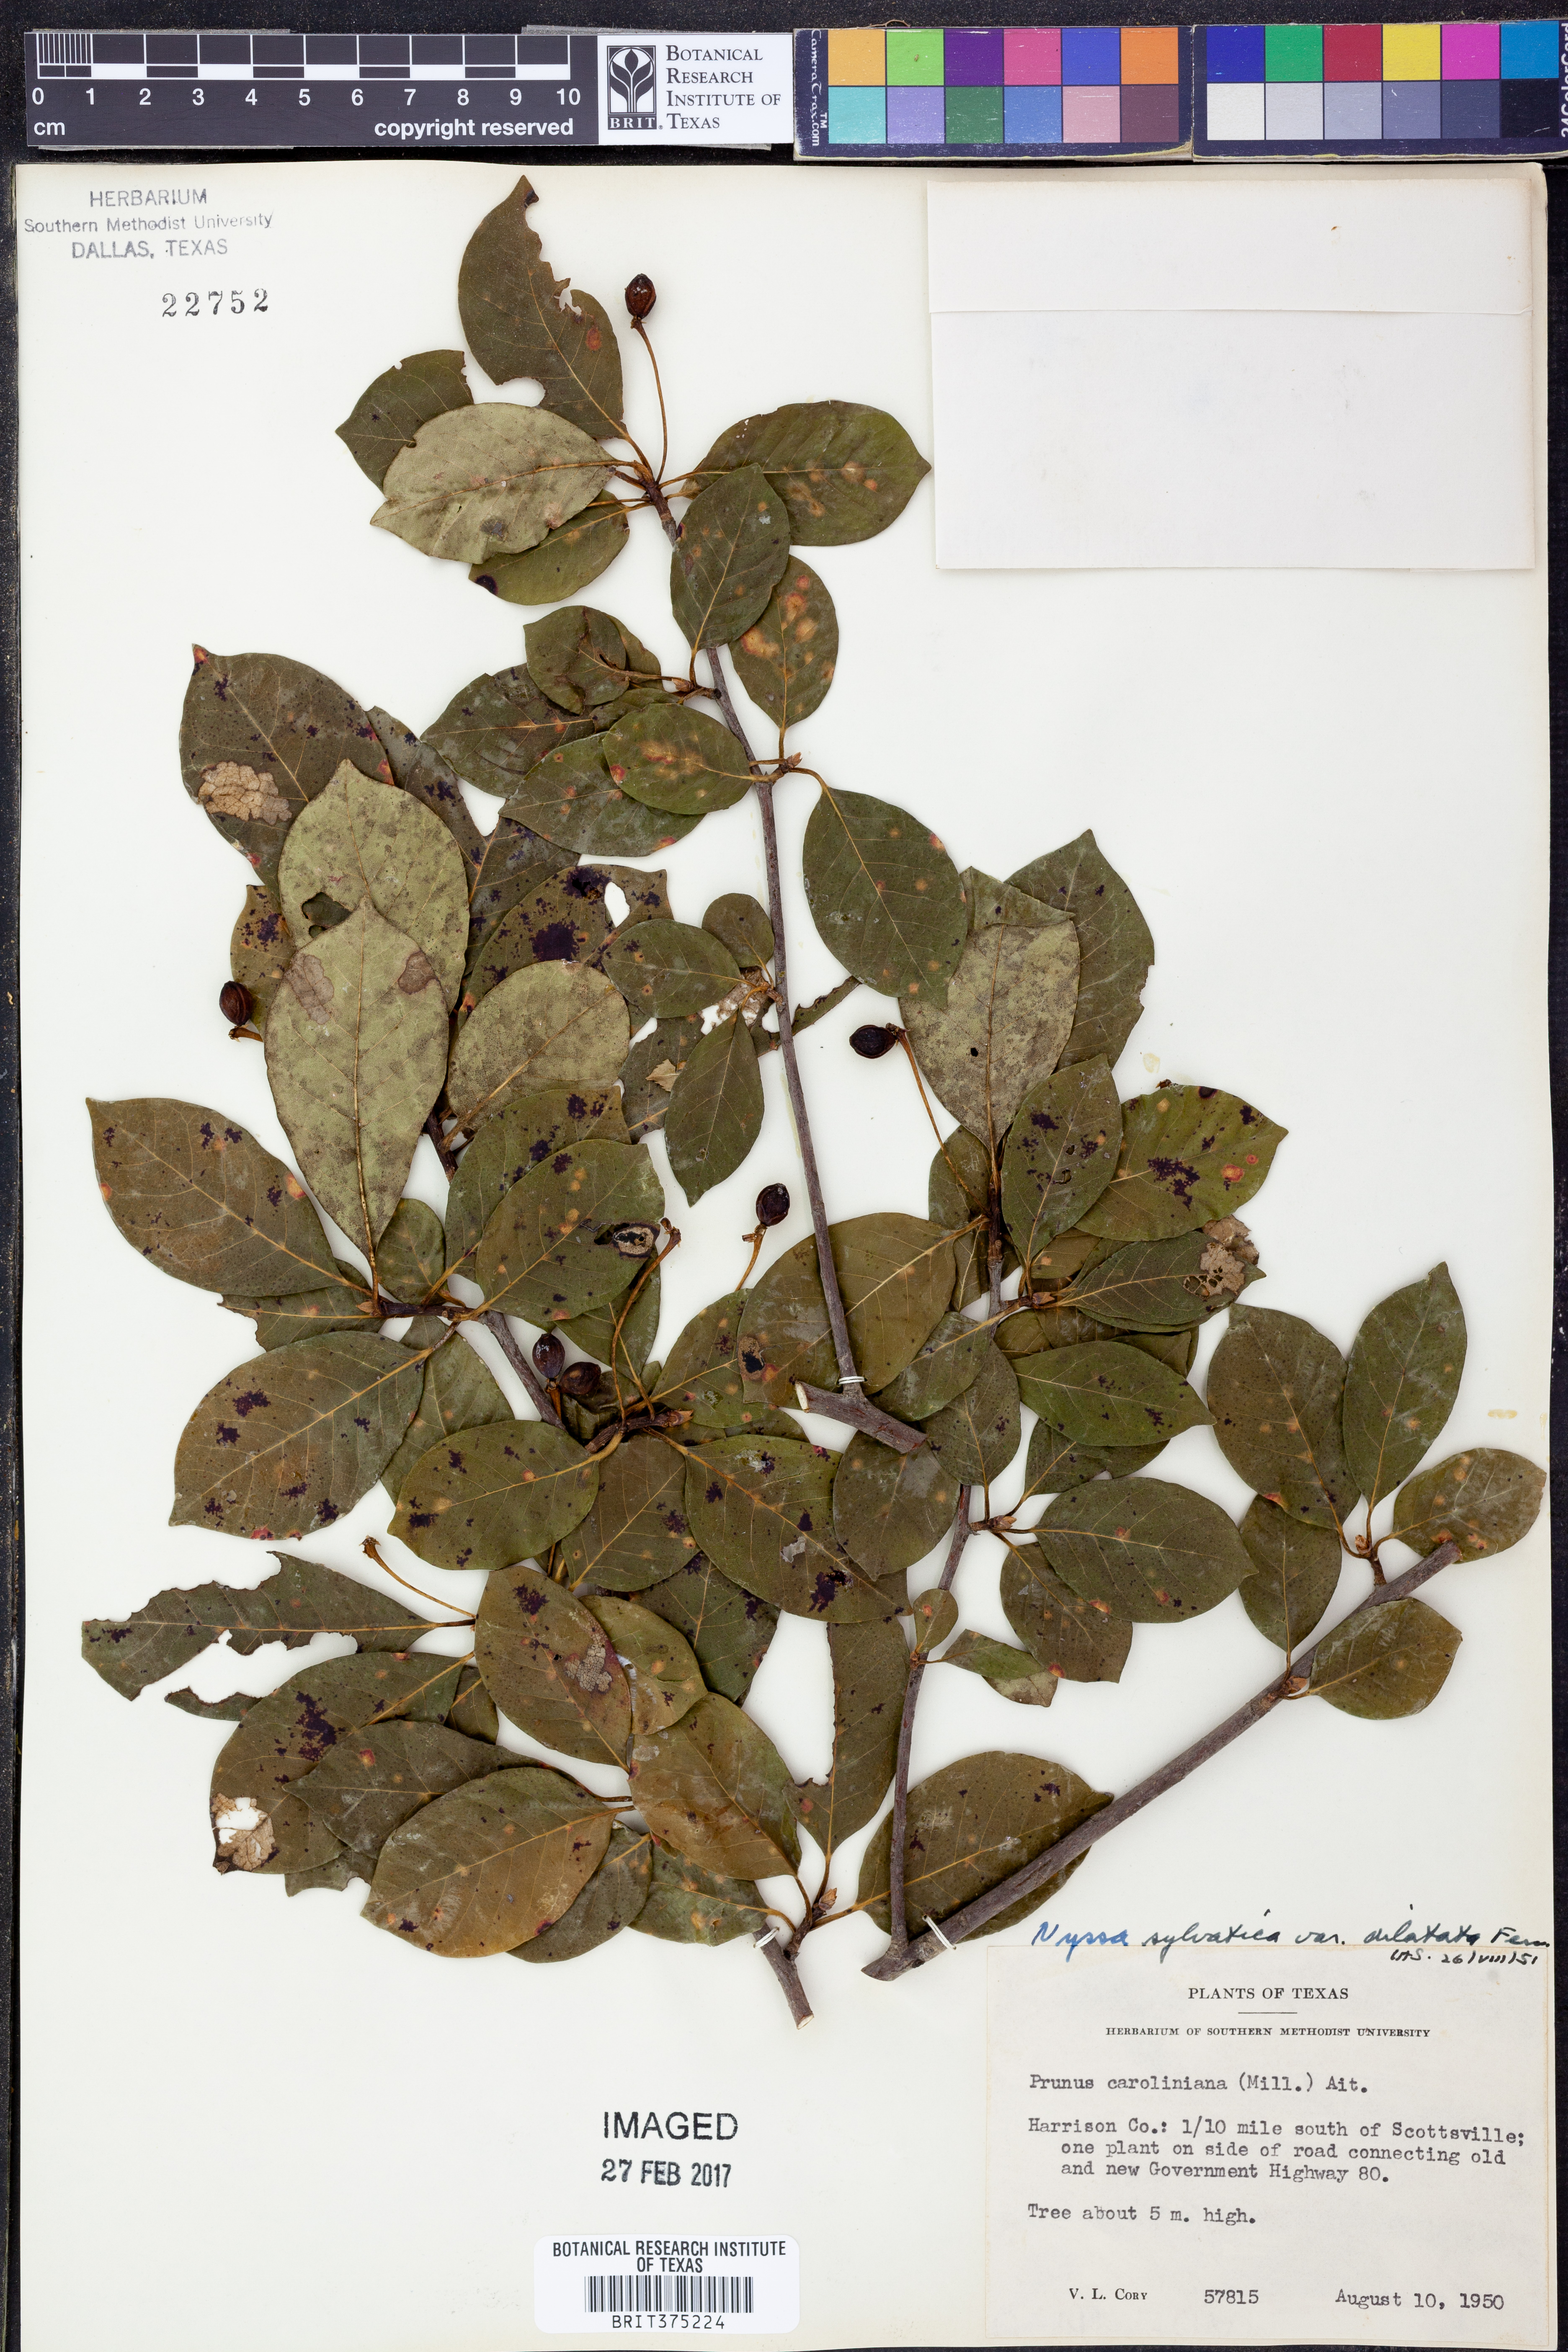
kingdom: Plantae
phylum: Tracheophyta
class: Magnoliopsida
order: Cornales
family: Nyssaceae
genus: Nyssa
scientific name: Nyssa sylvatica
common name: Black tupelo
